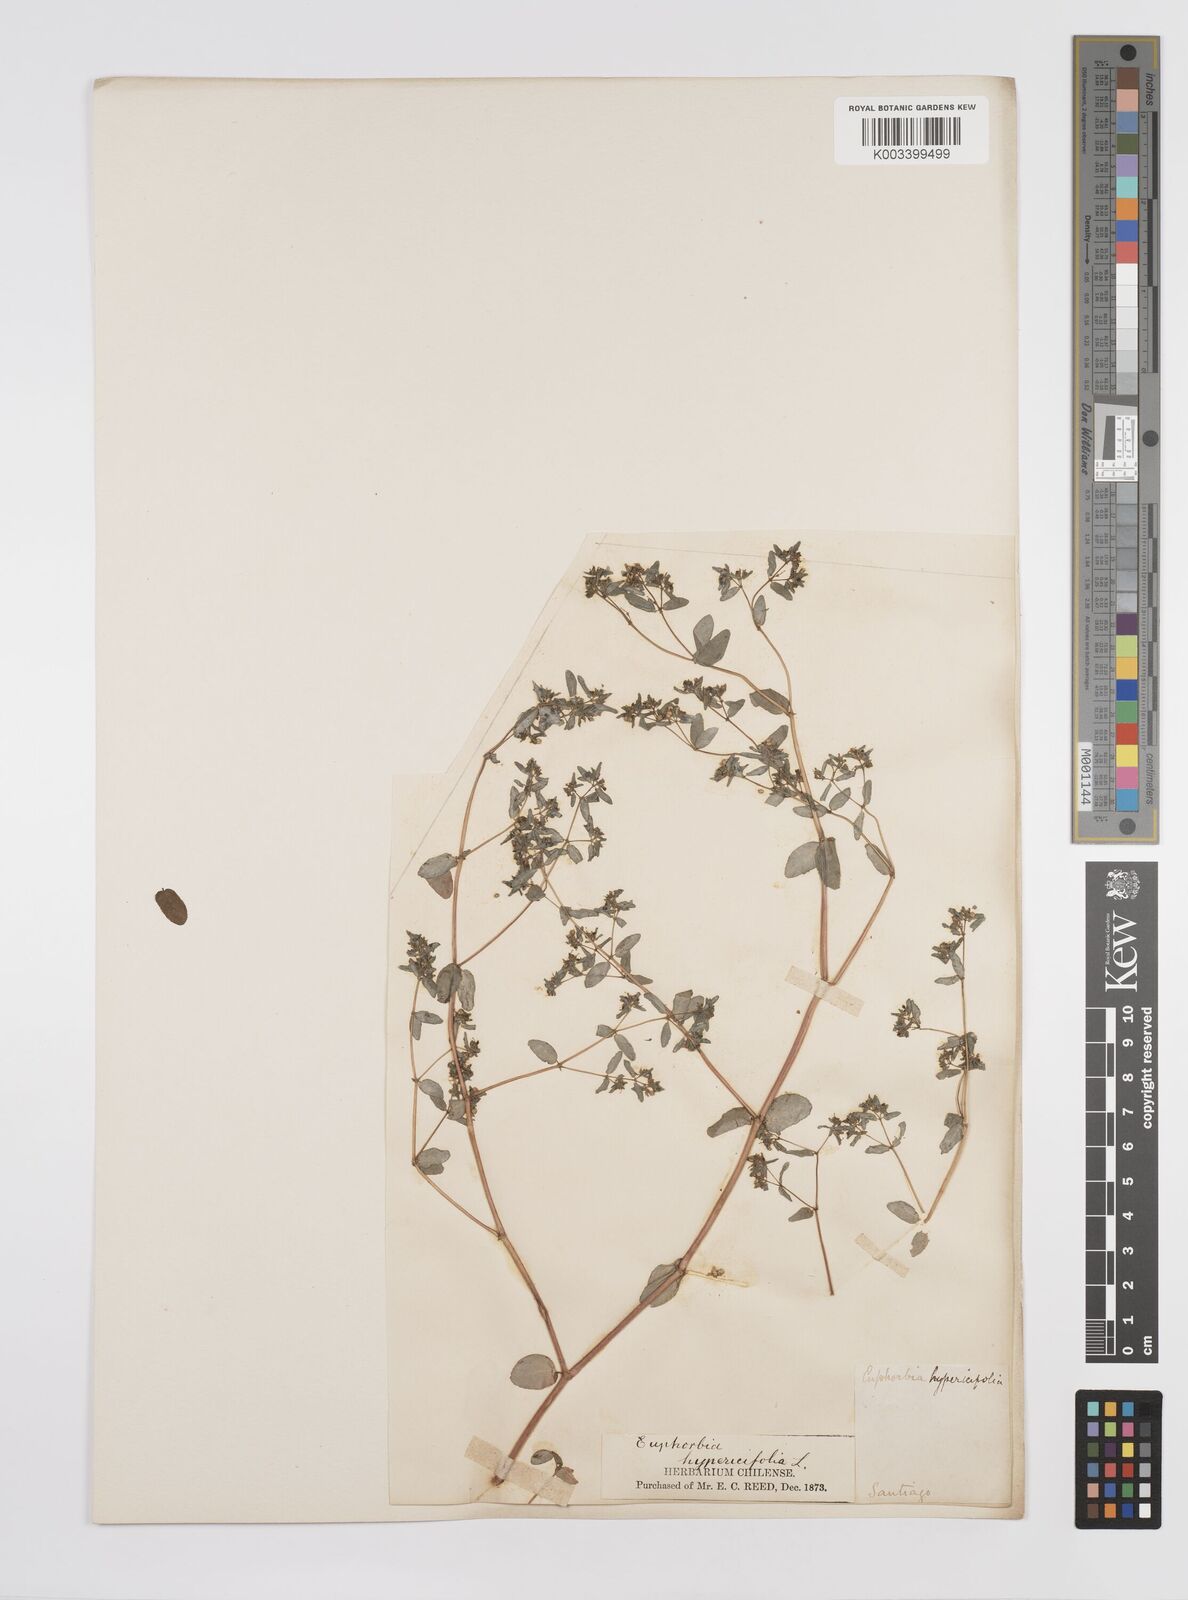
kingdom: Plantae
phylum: Tracheophyta
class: Magnoliopsida
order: Malpighiales
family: Euphorbiaceae
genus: Euphorbia
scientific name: Euphorbia hypericifolia
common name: Graceful sandmat
